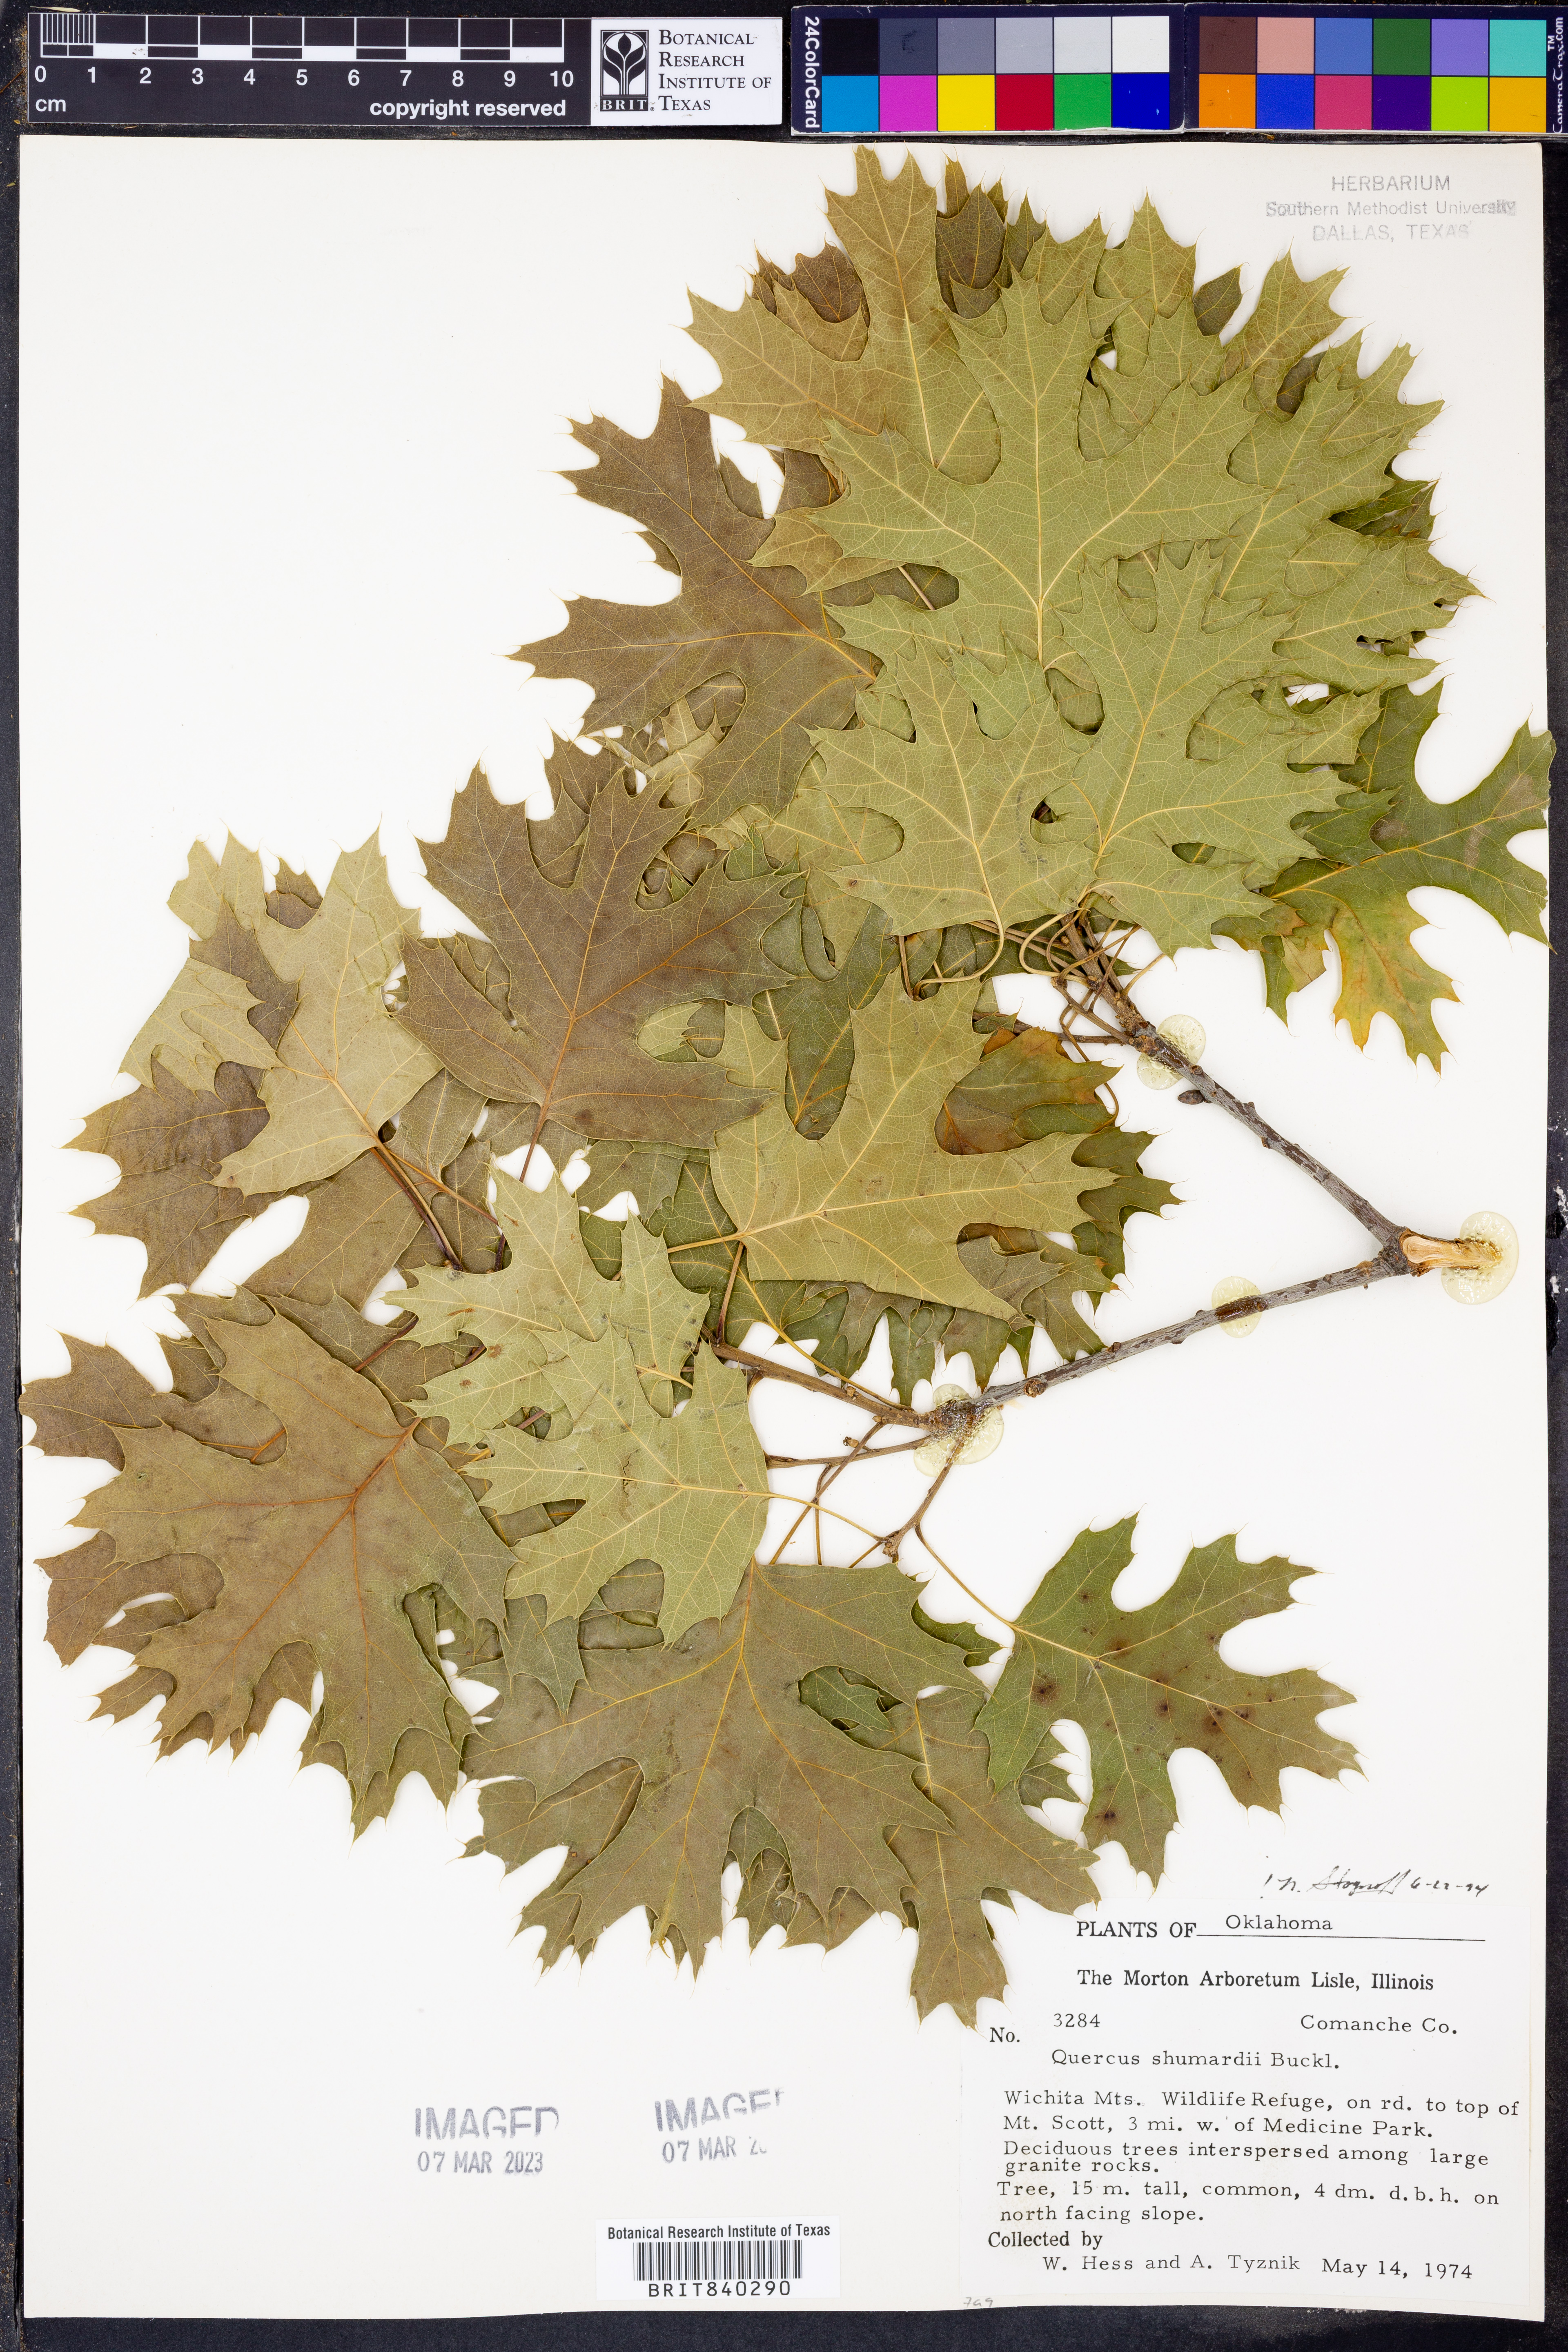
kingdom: Plantae
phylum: Tracheophyta
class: Magnoliopsida
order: Fagales
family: Fagaceae
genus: Quercus
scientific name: Quercus shumardii
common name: Shumard oak
